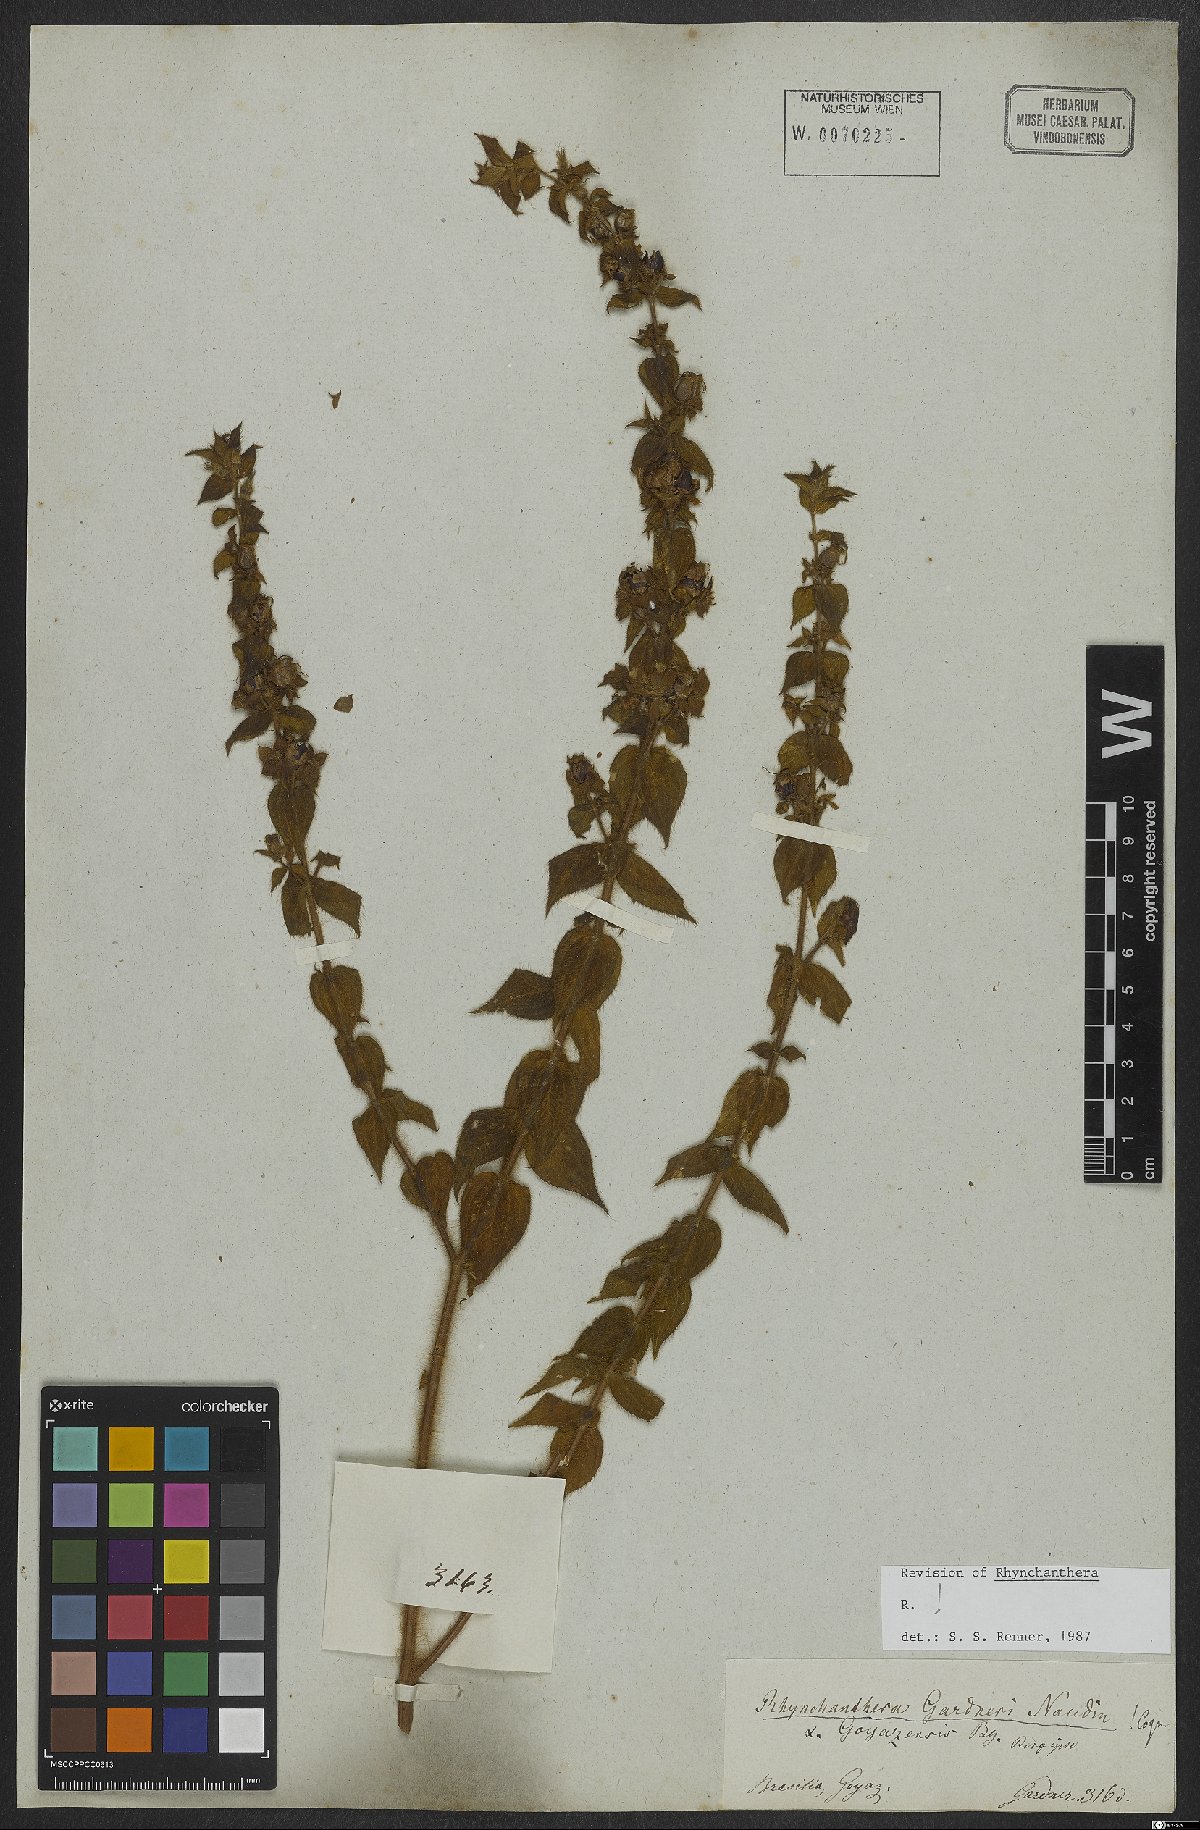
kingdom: Plantae
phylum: Tracheophyta
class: Magnoliopsida
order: Myrtales
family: Melastomataceae
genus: Rhynchanthera
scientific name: Rhynchanthera gardneri
